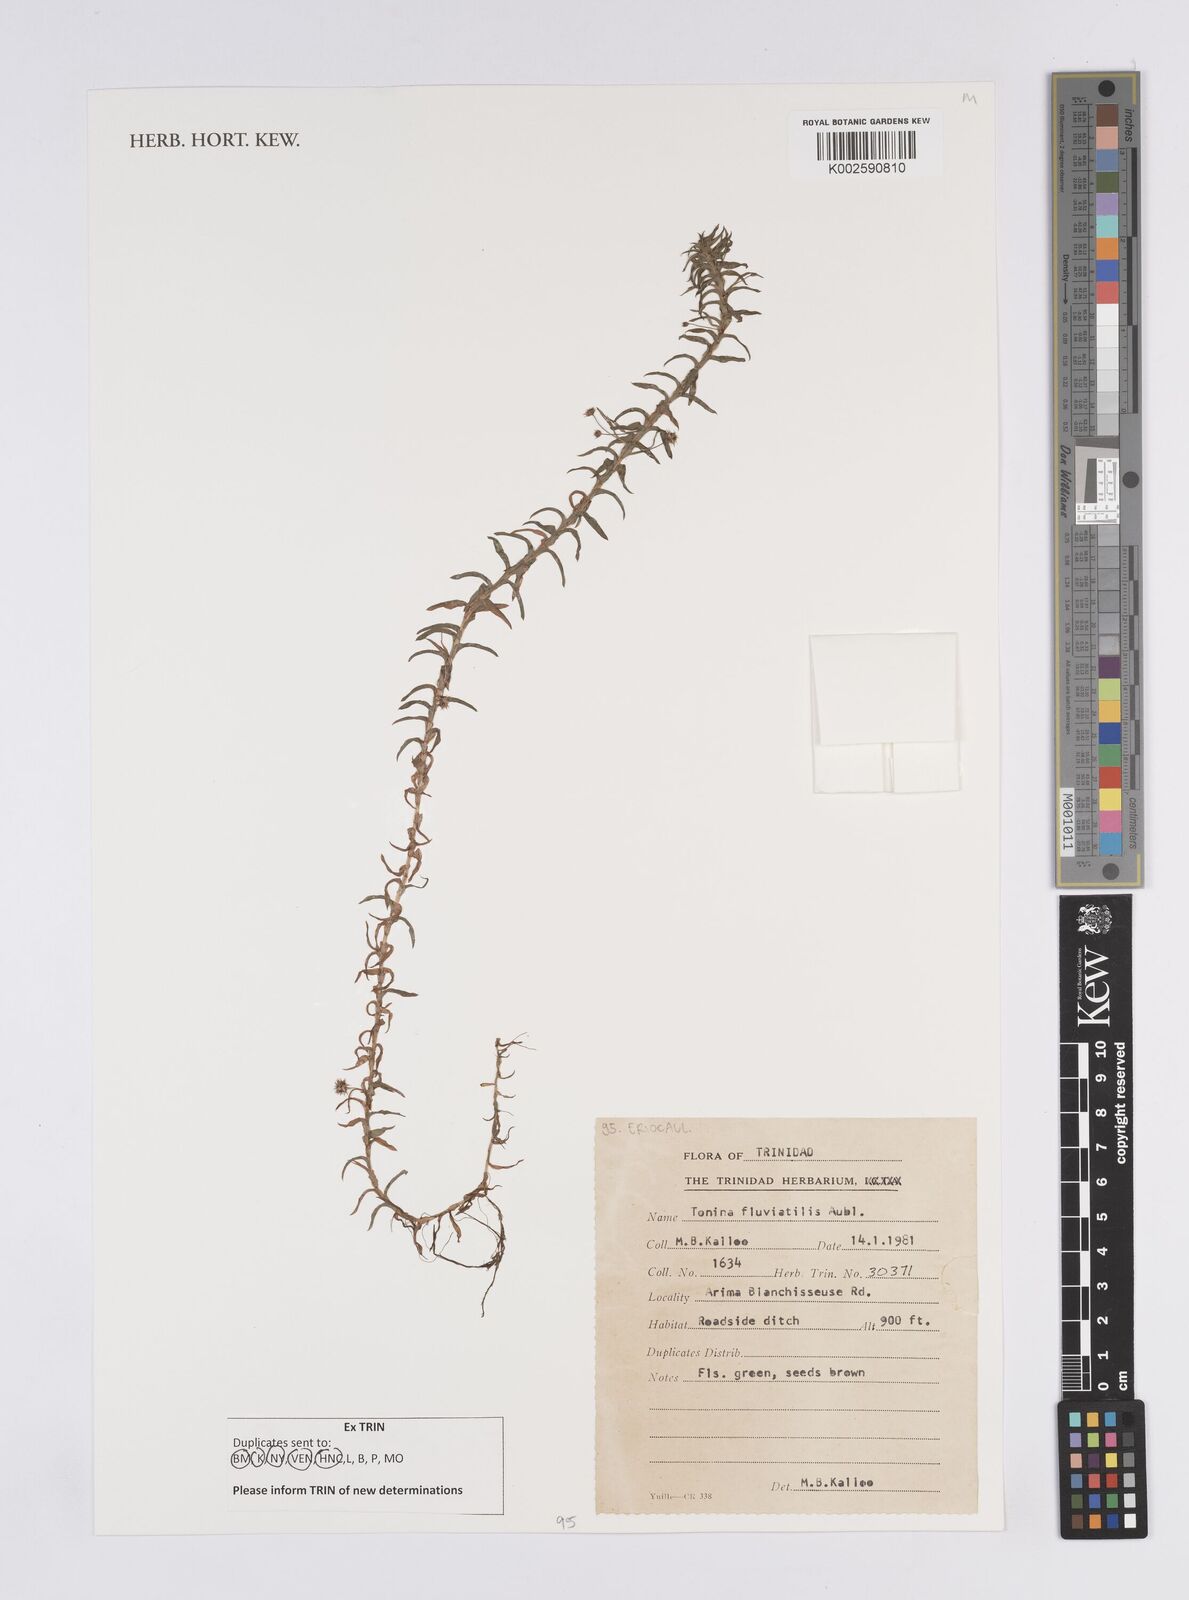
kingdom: Plantae
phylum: Tracheophyta
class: Liliopsida
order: Poales
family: Eriocaulaceae
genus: Paepalanthus
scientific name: Paepalanthus fluviatilis
